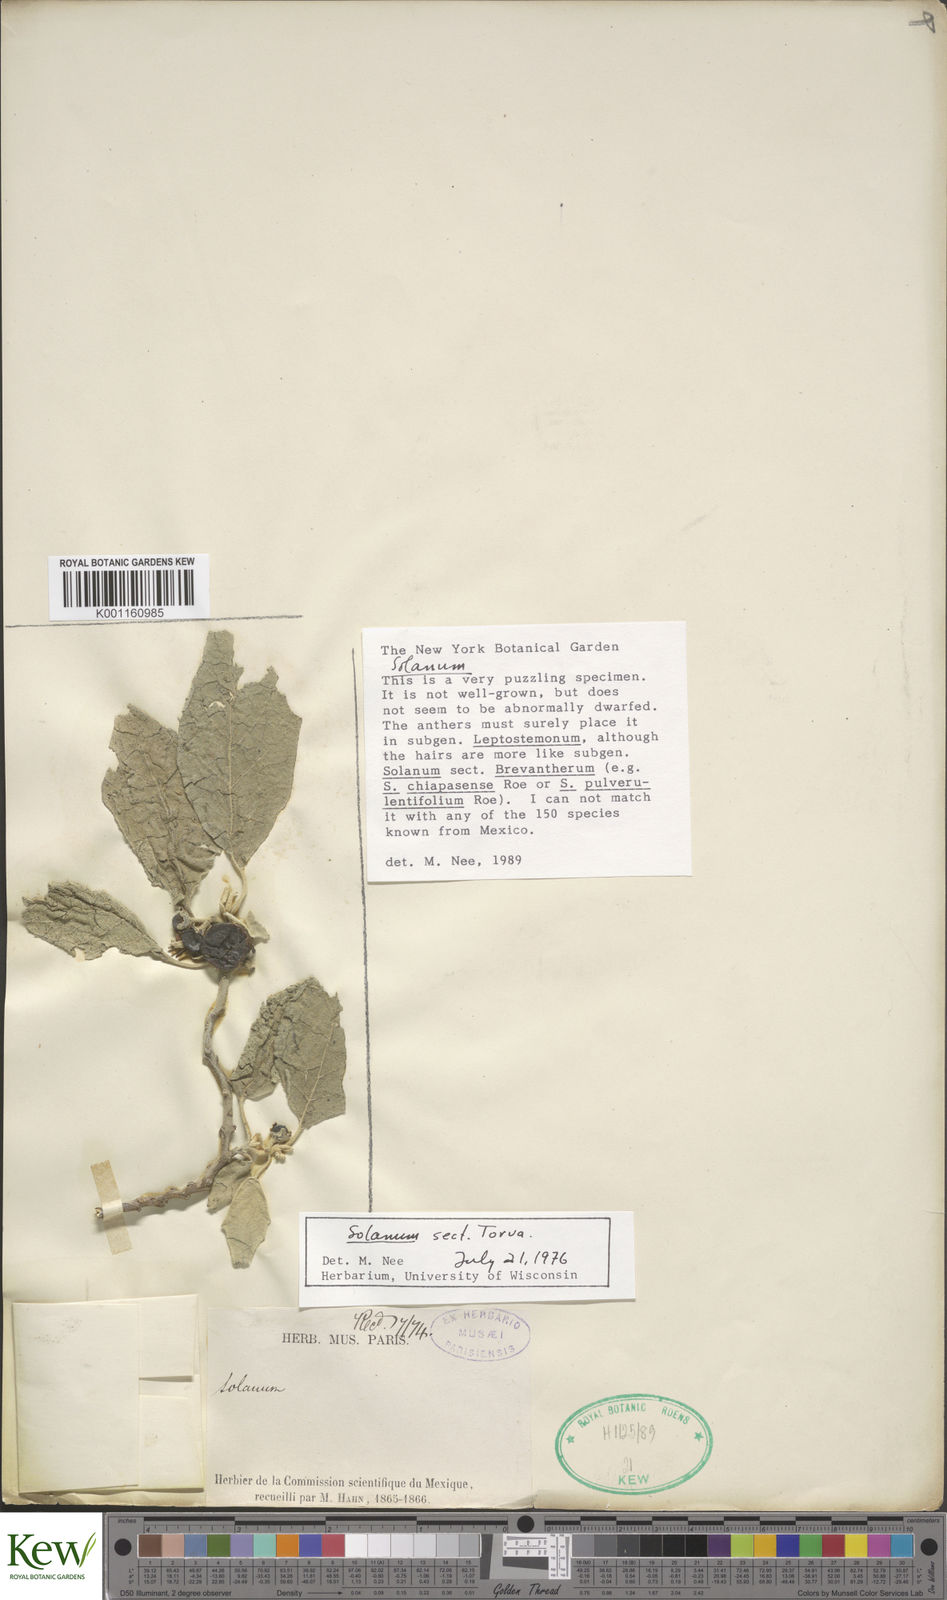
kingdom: Plantae
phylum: Tracheophyta
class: Magnoliopsida
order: Solanales
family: Solanaceae
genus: Solanum
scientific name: Solanum
